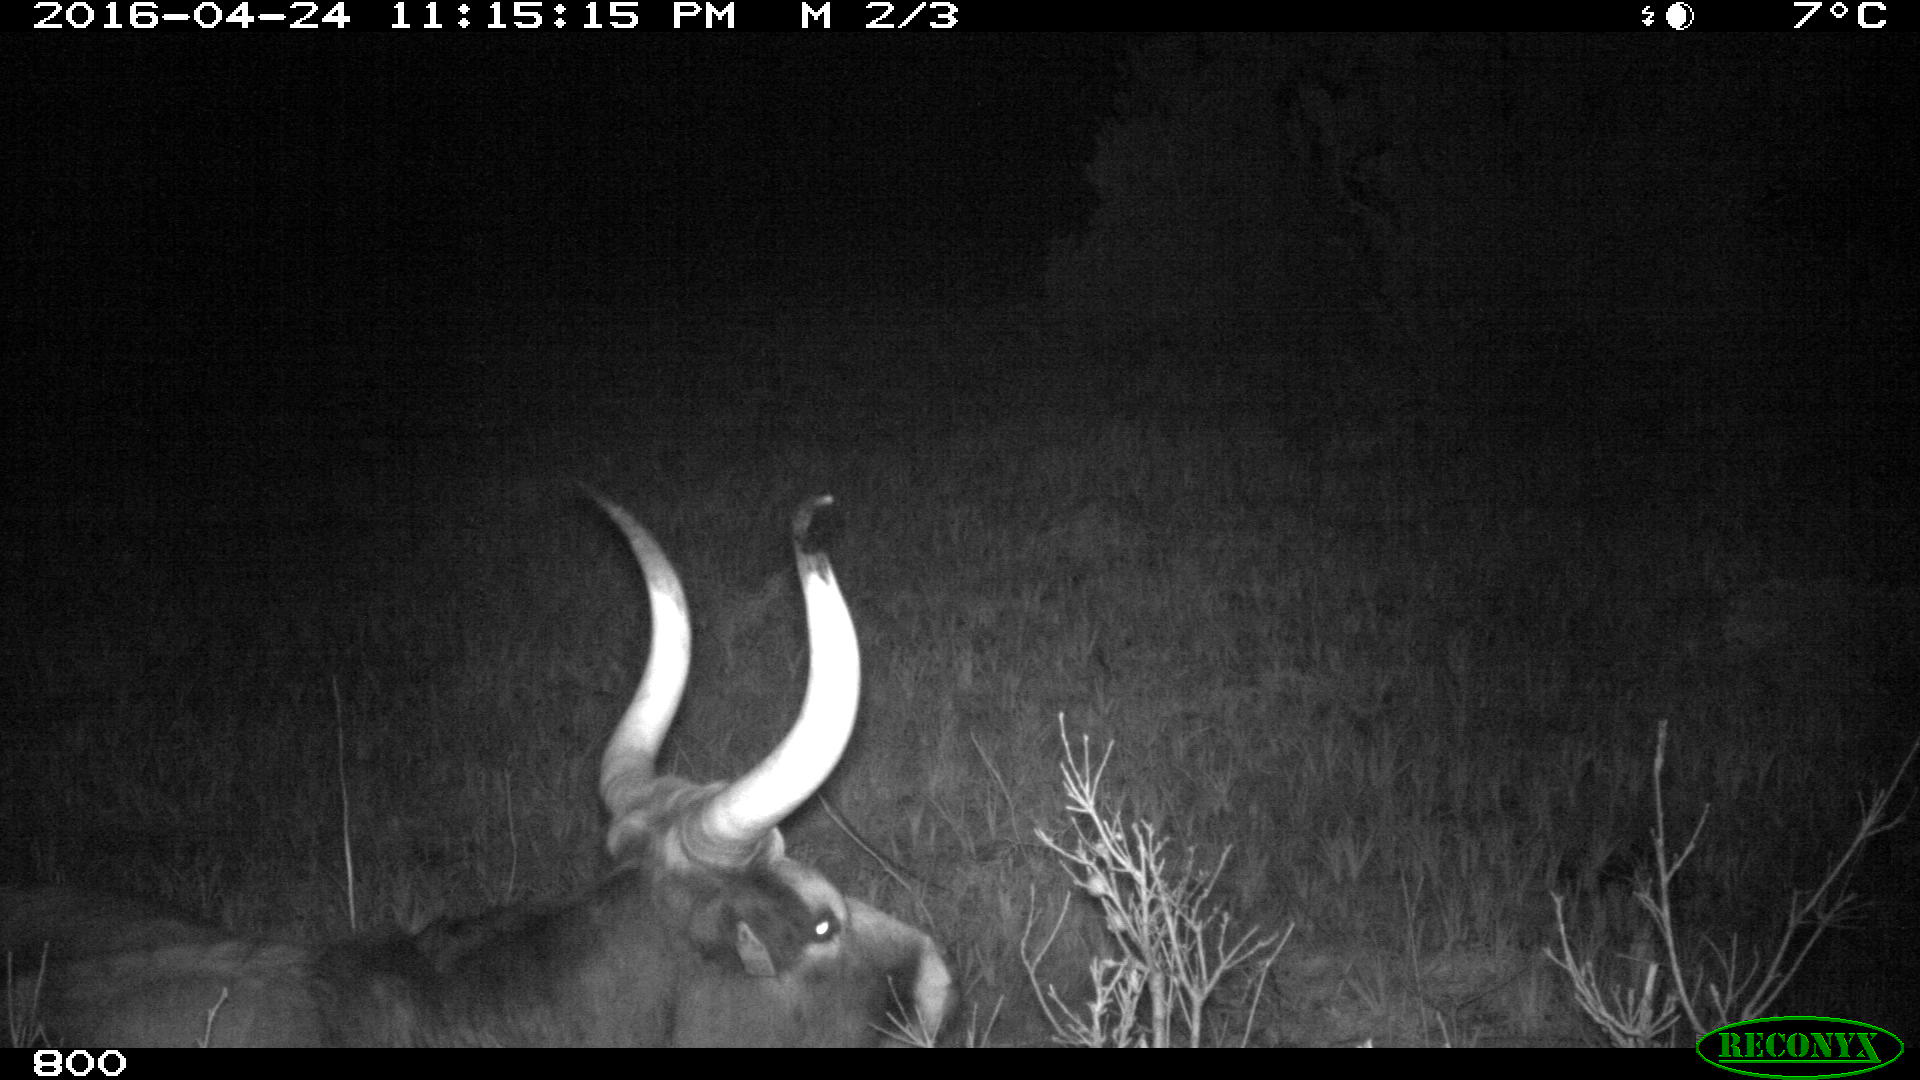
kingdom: Animalia
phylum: Chordata
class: Mammalia
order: Artiodactyla
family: Bovidae
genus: Bos
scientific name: Bos taurus
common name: Domesticated cattle
